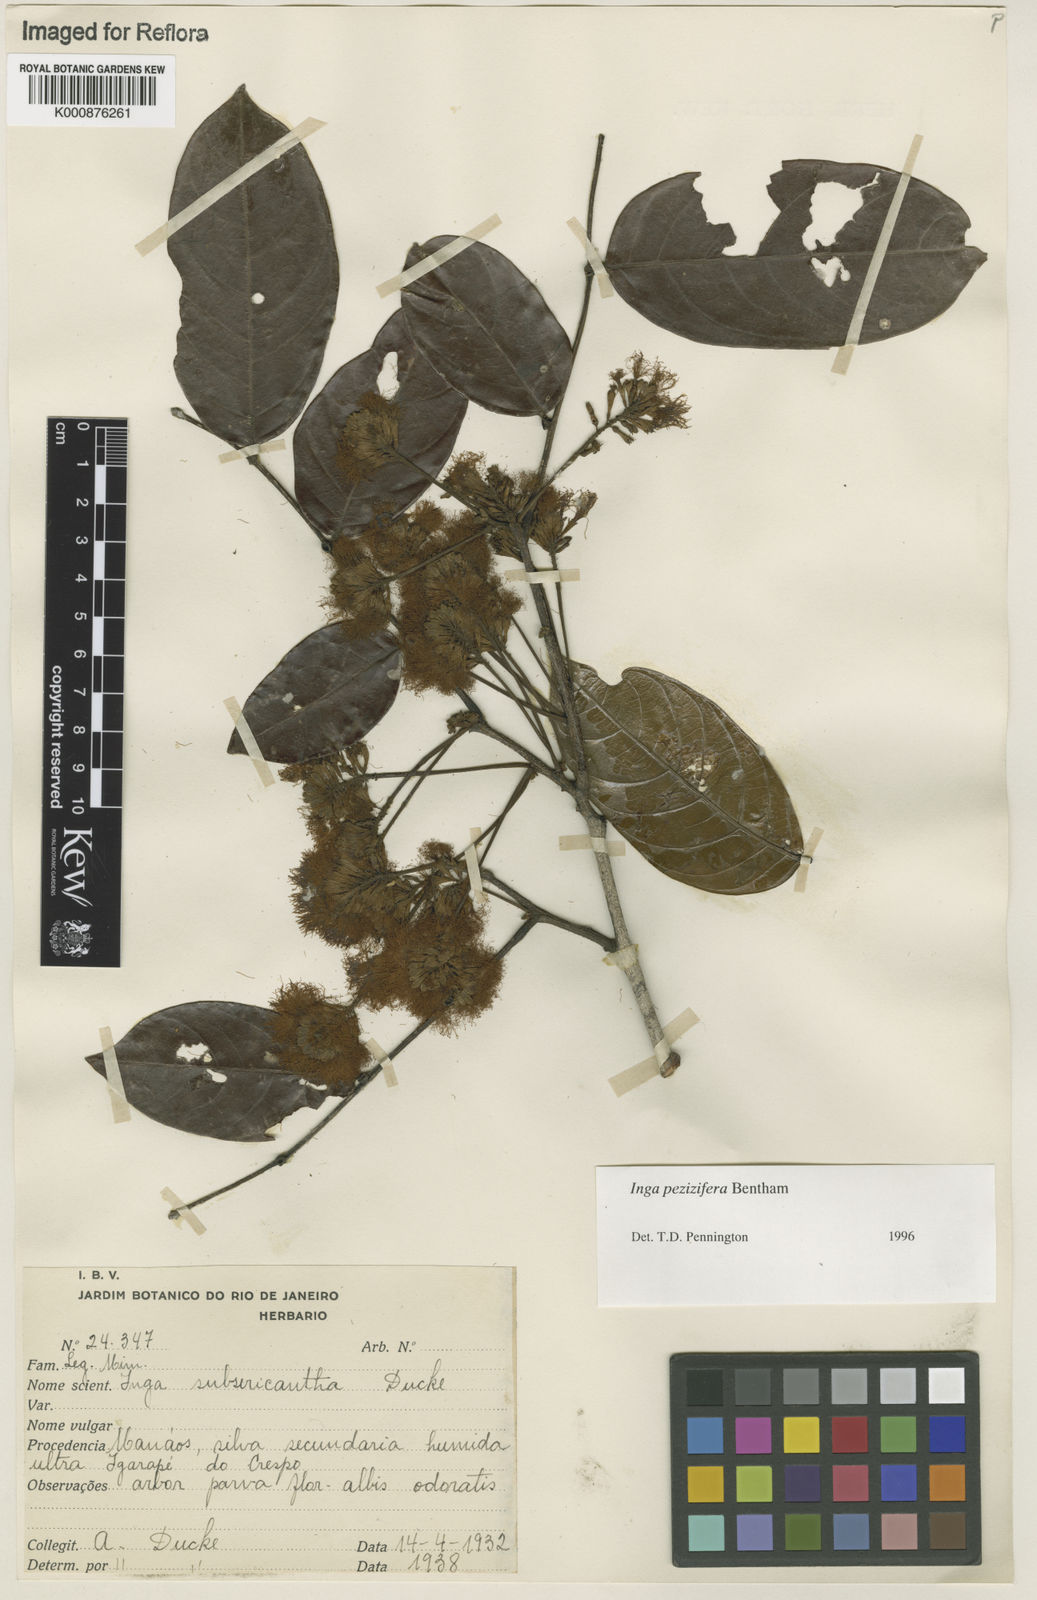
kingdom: Plantae
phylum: Tracheophyta
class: Magnoliopsida
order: Fabales
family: Fabaceae
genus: Inga
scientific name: Inga pezizifera
